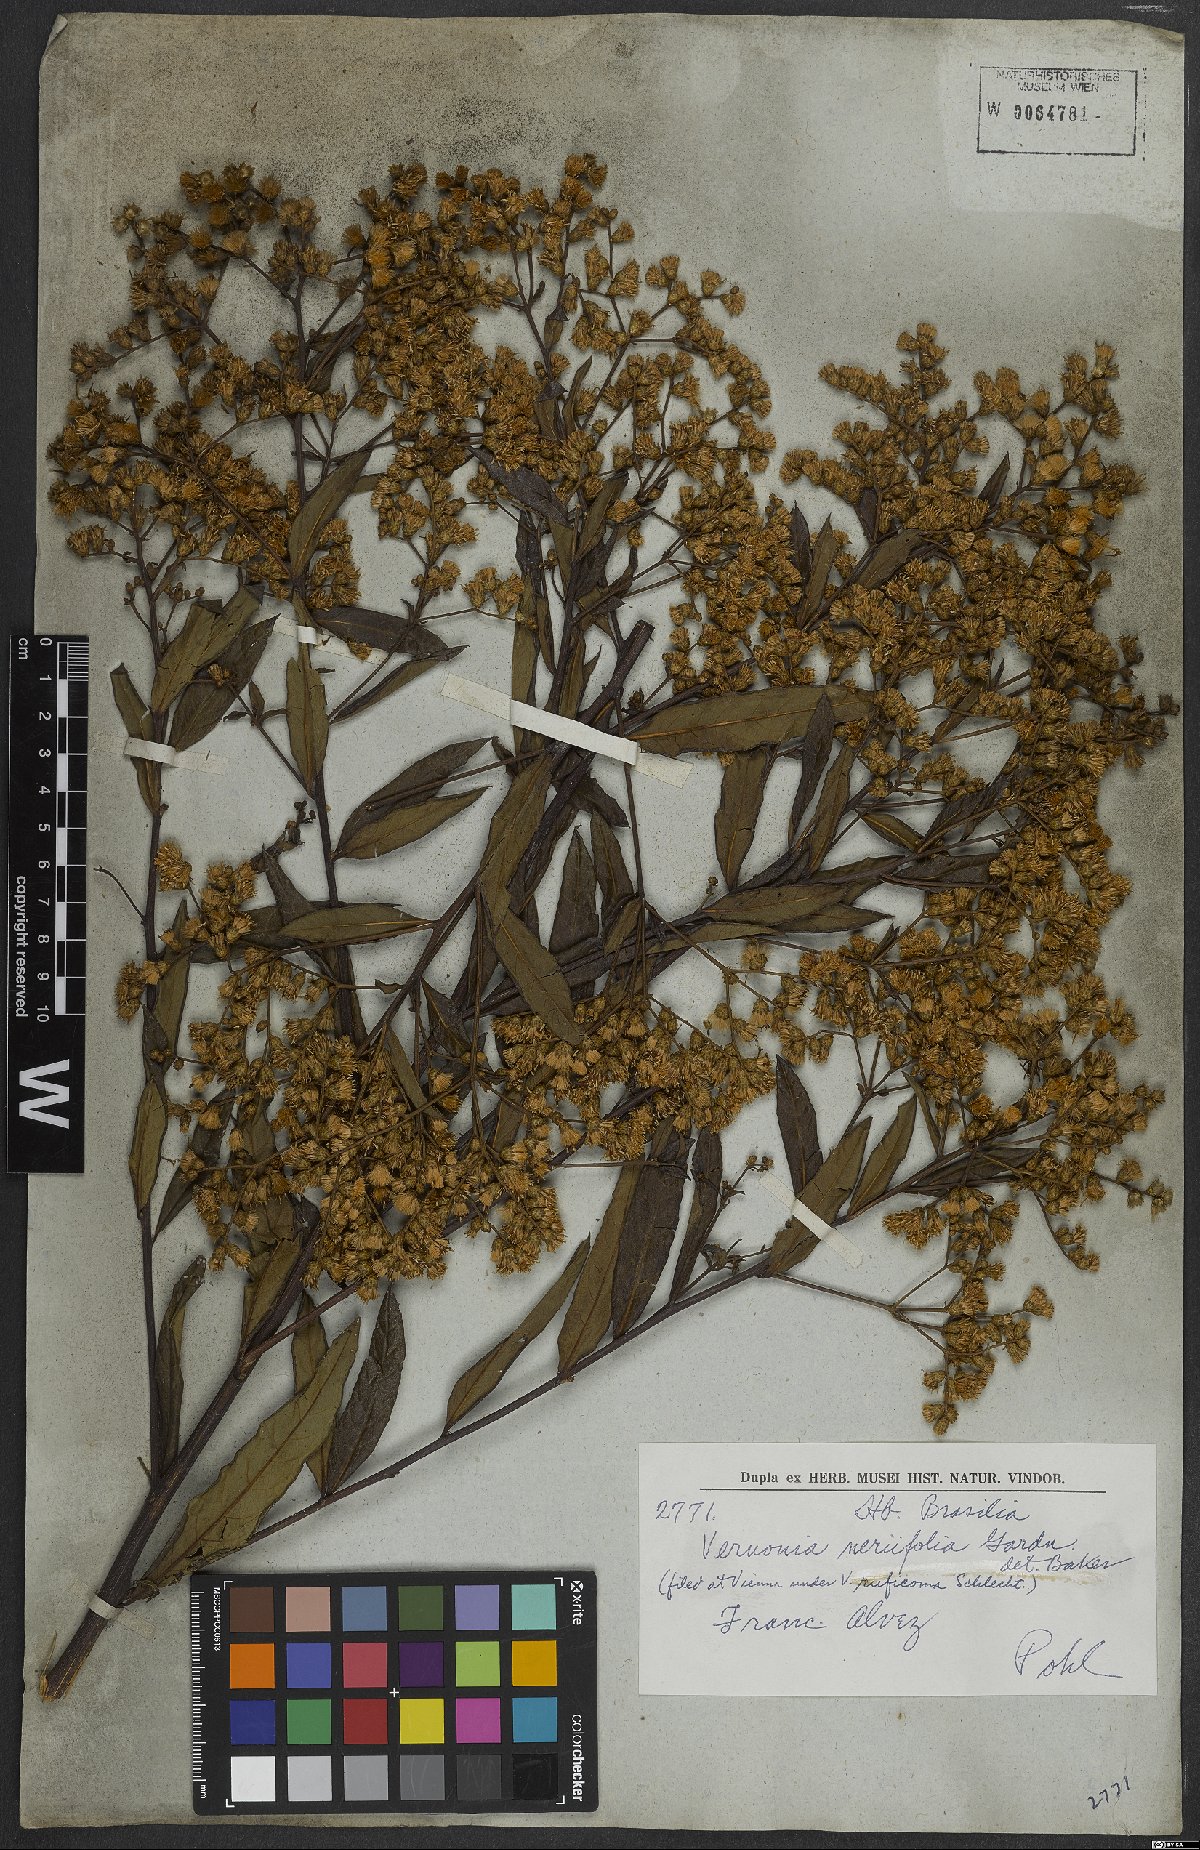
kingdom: Plantae
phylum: Tracheophyta
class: Magnoliopsida
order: Asterales
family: Asteraceae
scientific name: Asteraceae
